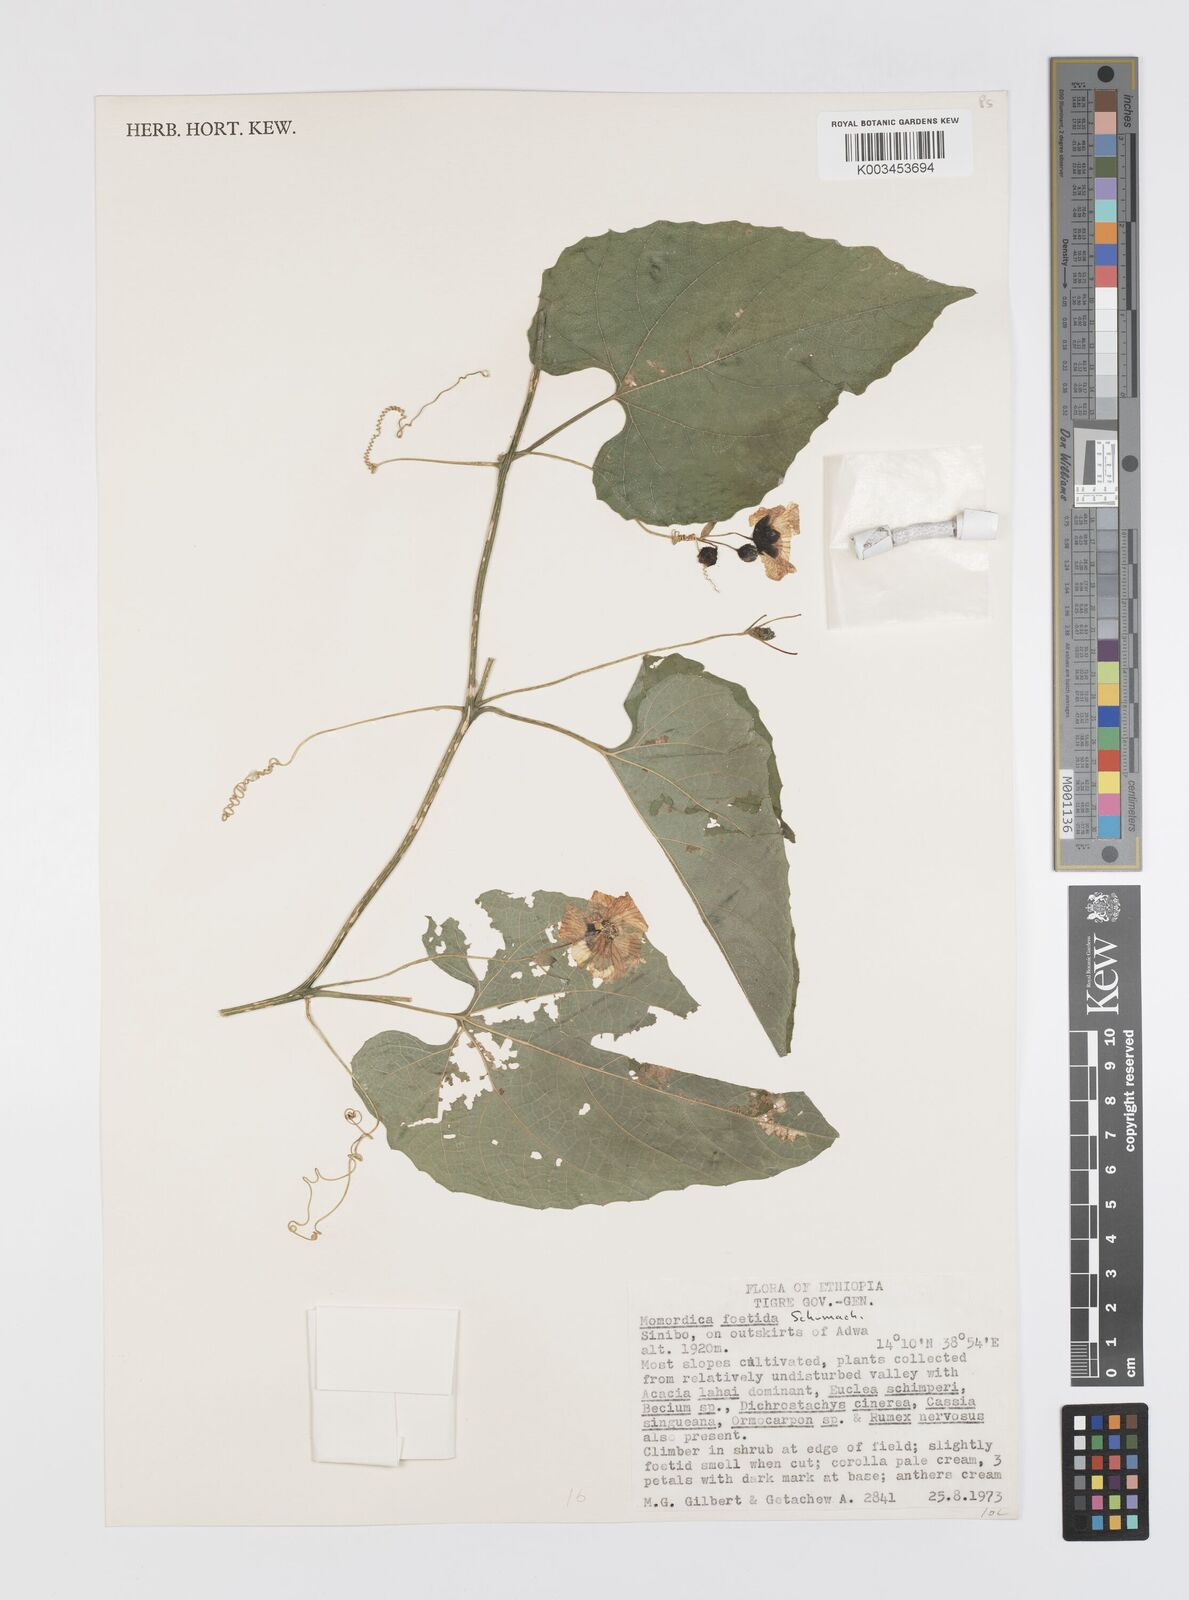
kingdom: Plantae
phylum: Tracheophyta
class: Magnoliopsida
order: Cucurbitales
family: Cucurbitaceae
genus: Momordica
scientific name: Momordica foetida
